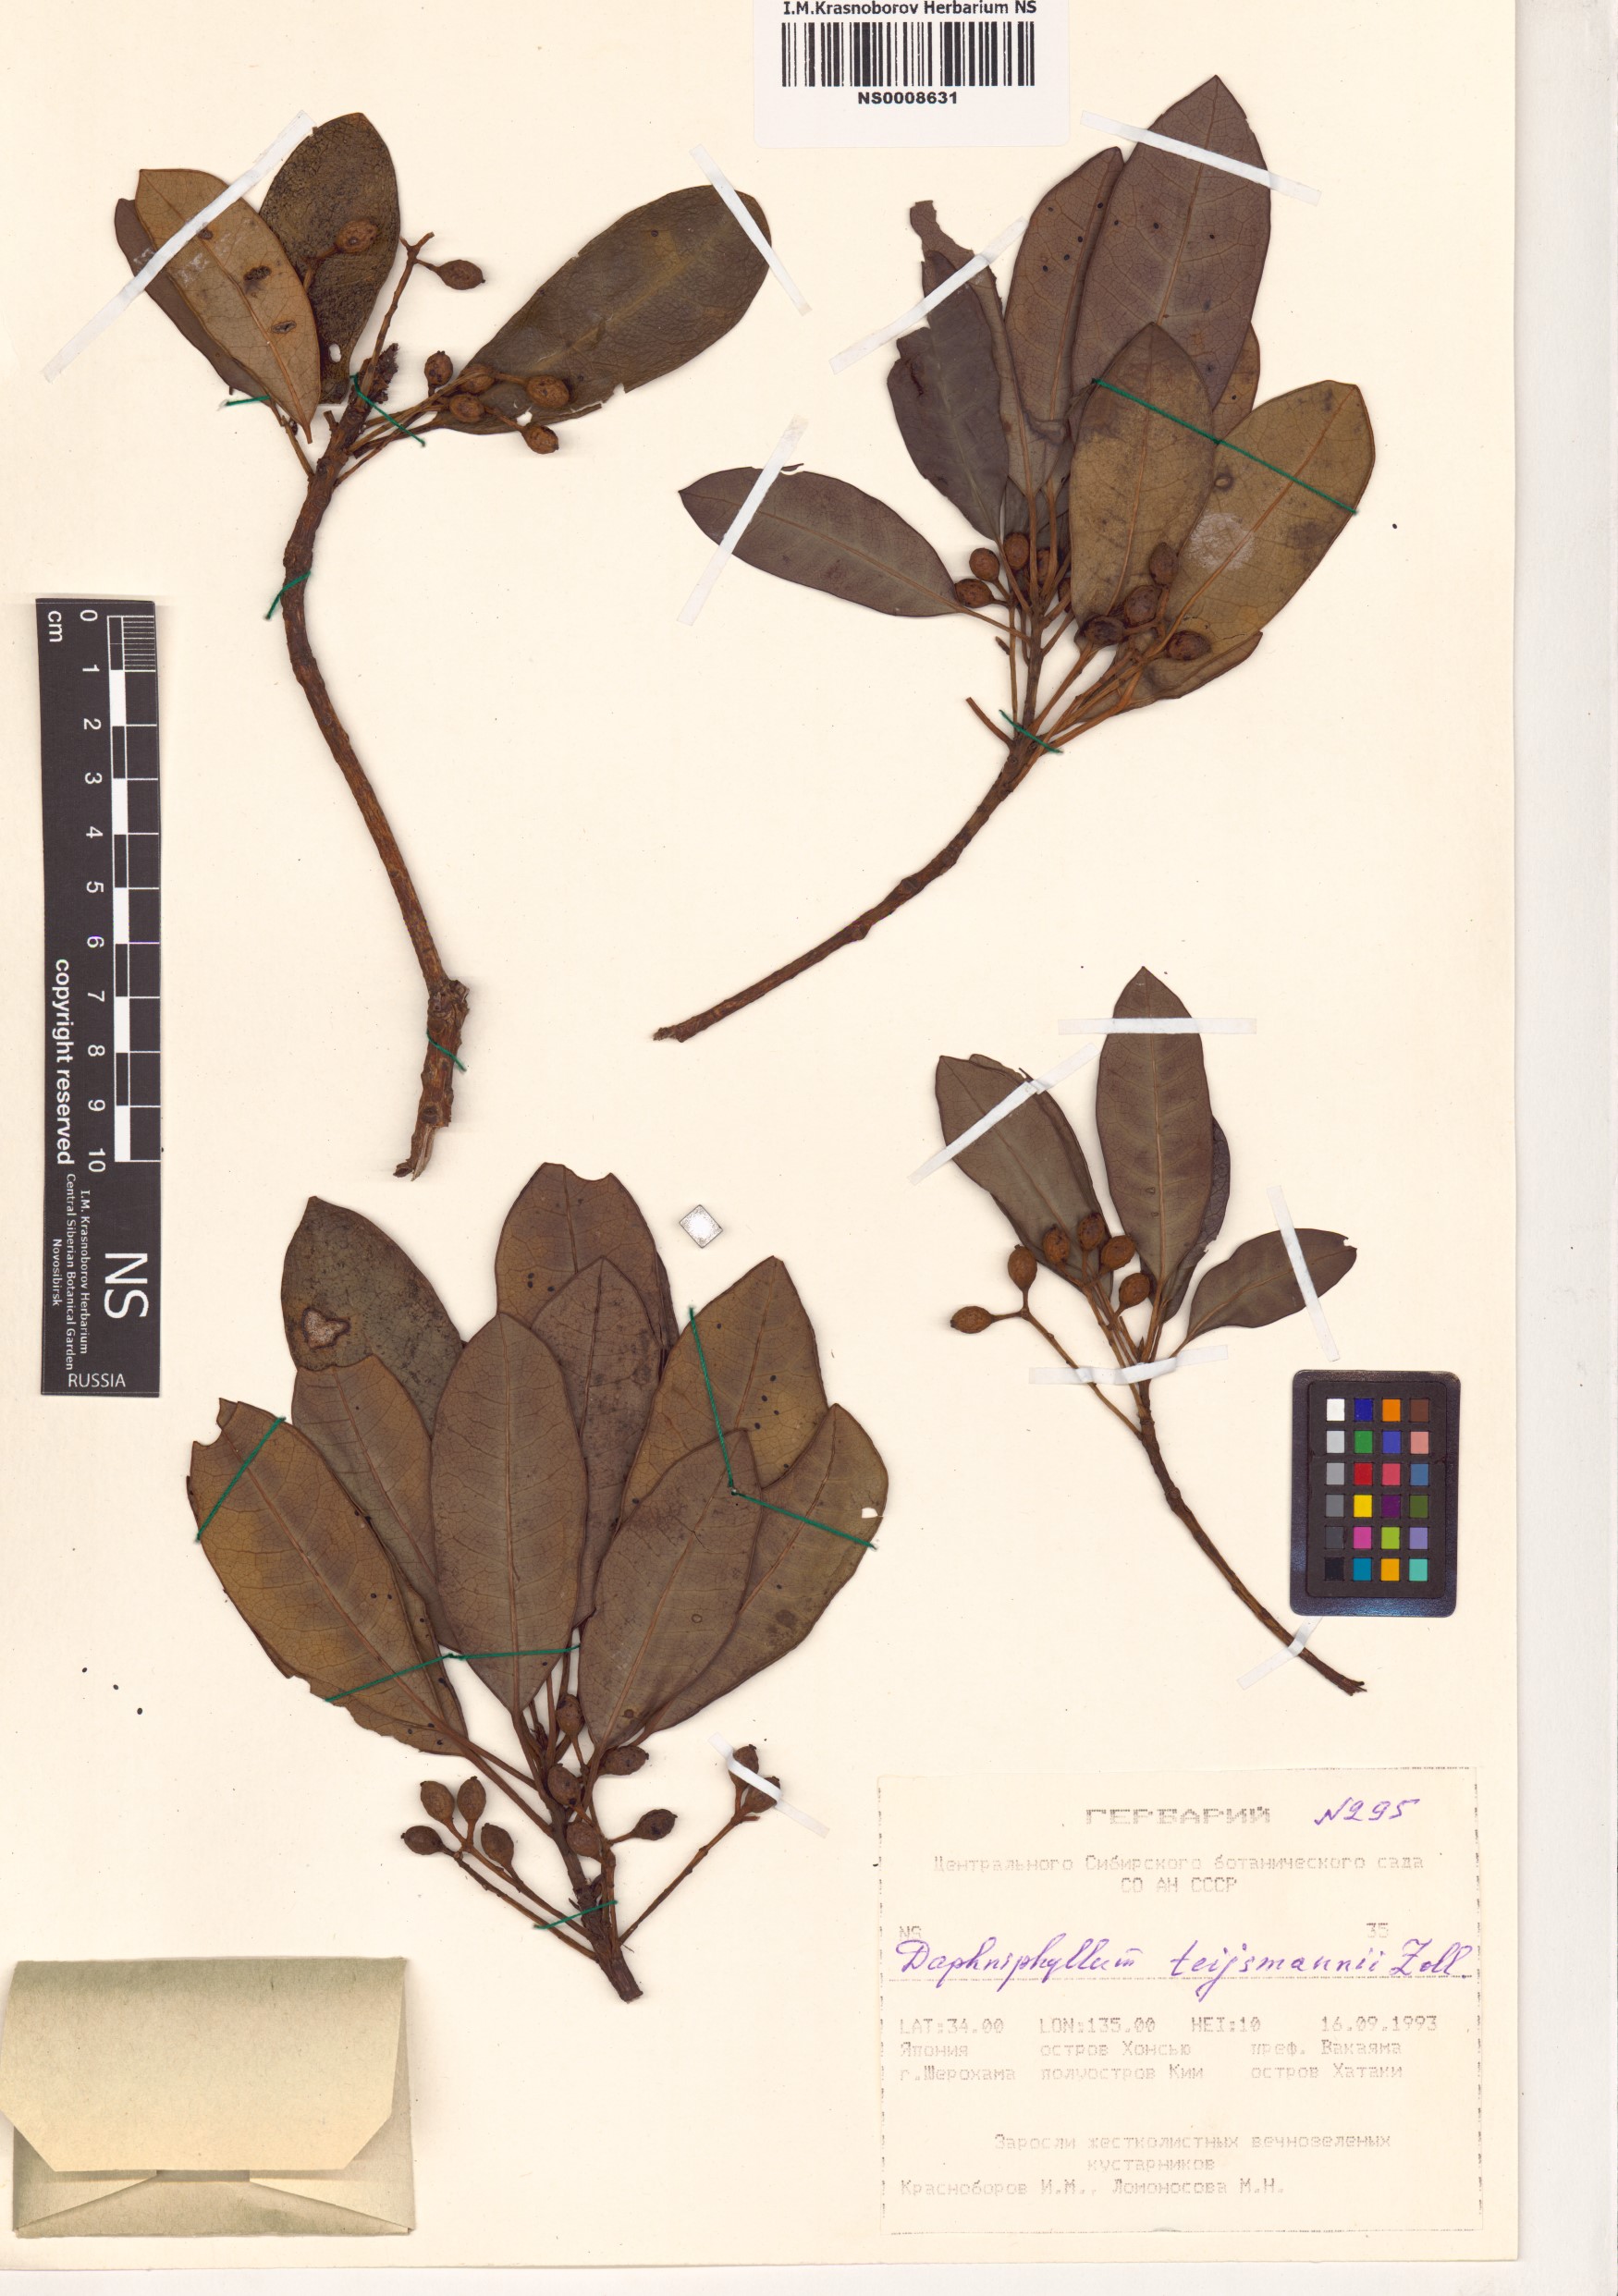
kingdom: Plantae
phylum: Tracheophyta
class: Magnoliopsida
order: Saxifragales
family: Daphniphyllaceae
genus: Daphniphyllum
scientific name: Daphniphyllum teijsmannii
